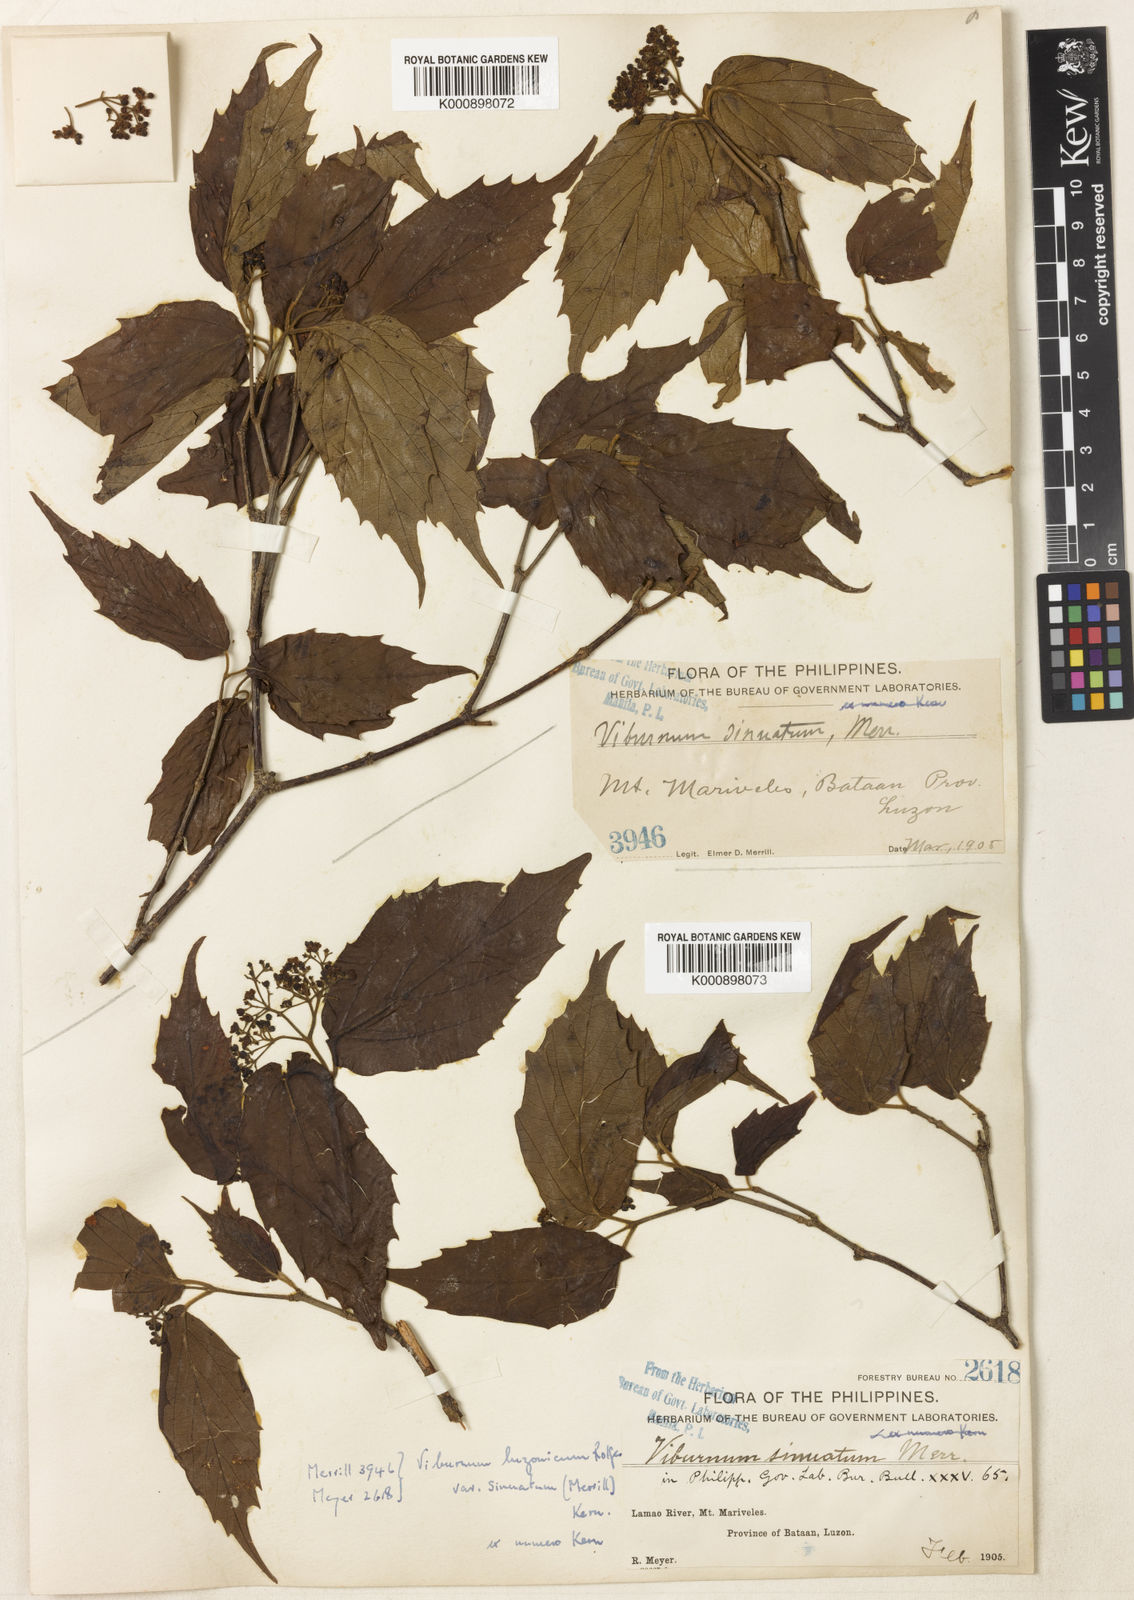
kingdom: Plantae
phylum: Tracheophyta
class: Magnoliopsida
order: Dipsacales
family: Viburnaceae
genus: Viburnum
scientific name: Viburnum luzonicum
